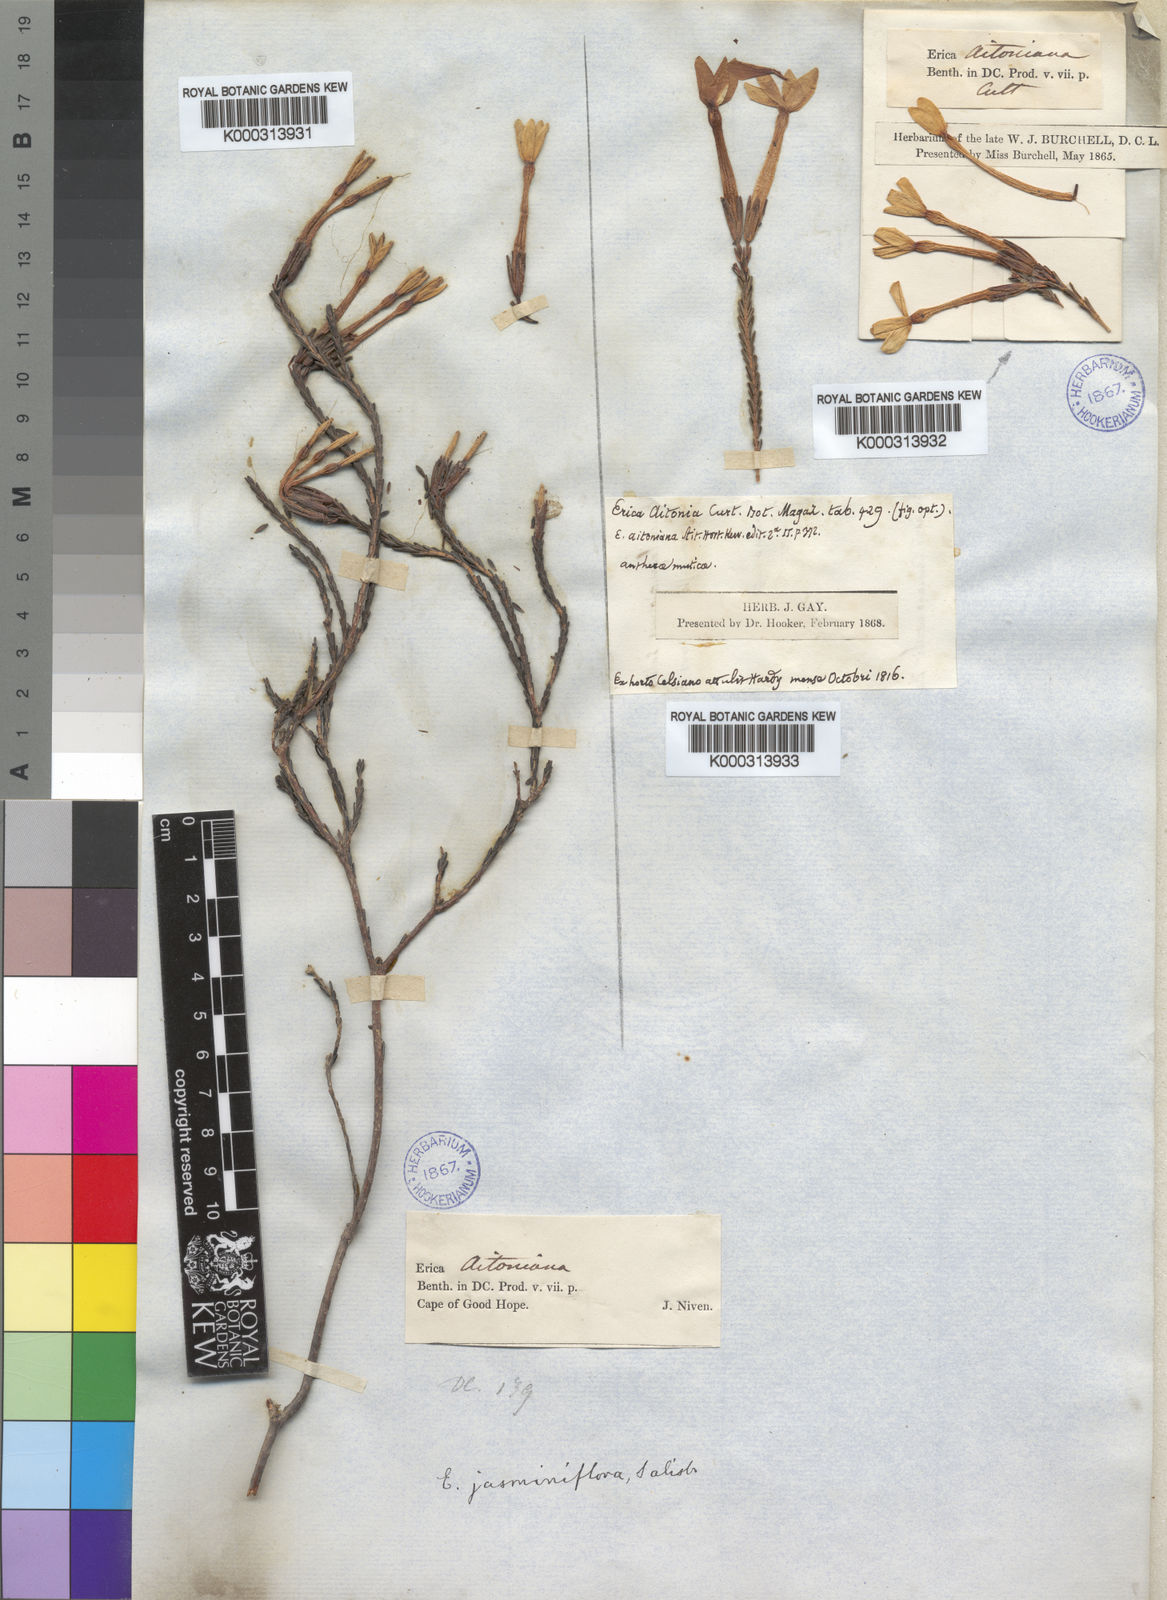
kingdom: Plantae
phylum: Tracheophyta
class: Magnoliopsida
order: Ericales
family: Ericaceae
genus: Erica
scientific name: Erica jasminiflora
